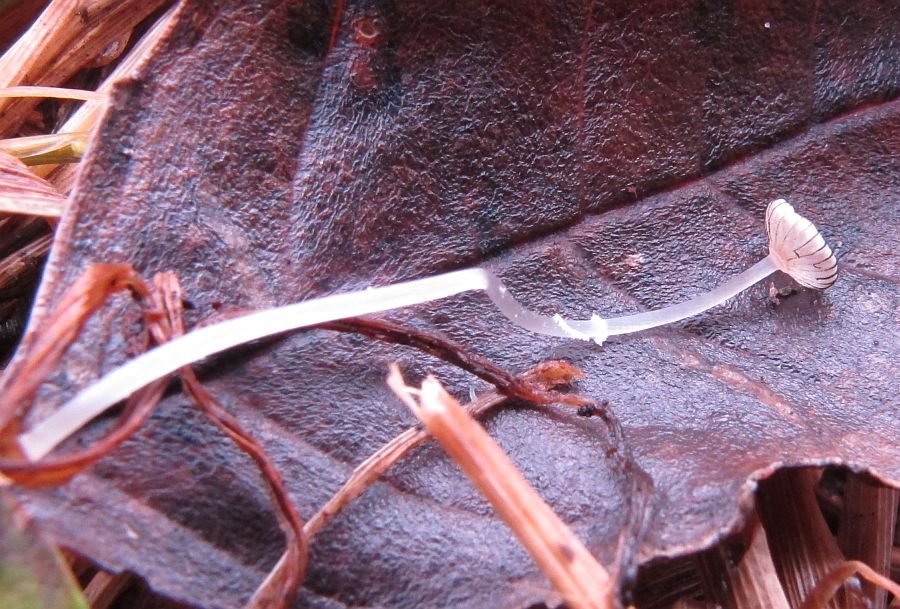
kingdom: Fungi
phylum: Basidiomycota
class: Agaricomycetes
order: Agaricales
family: Psathyrellaceae
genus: Narcissea
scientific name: Narcissea ephemeroides
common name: ring-blækhat
